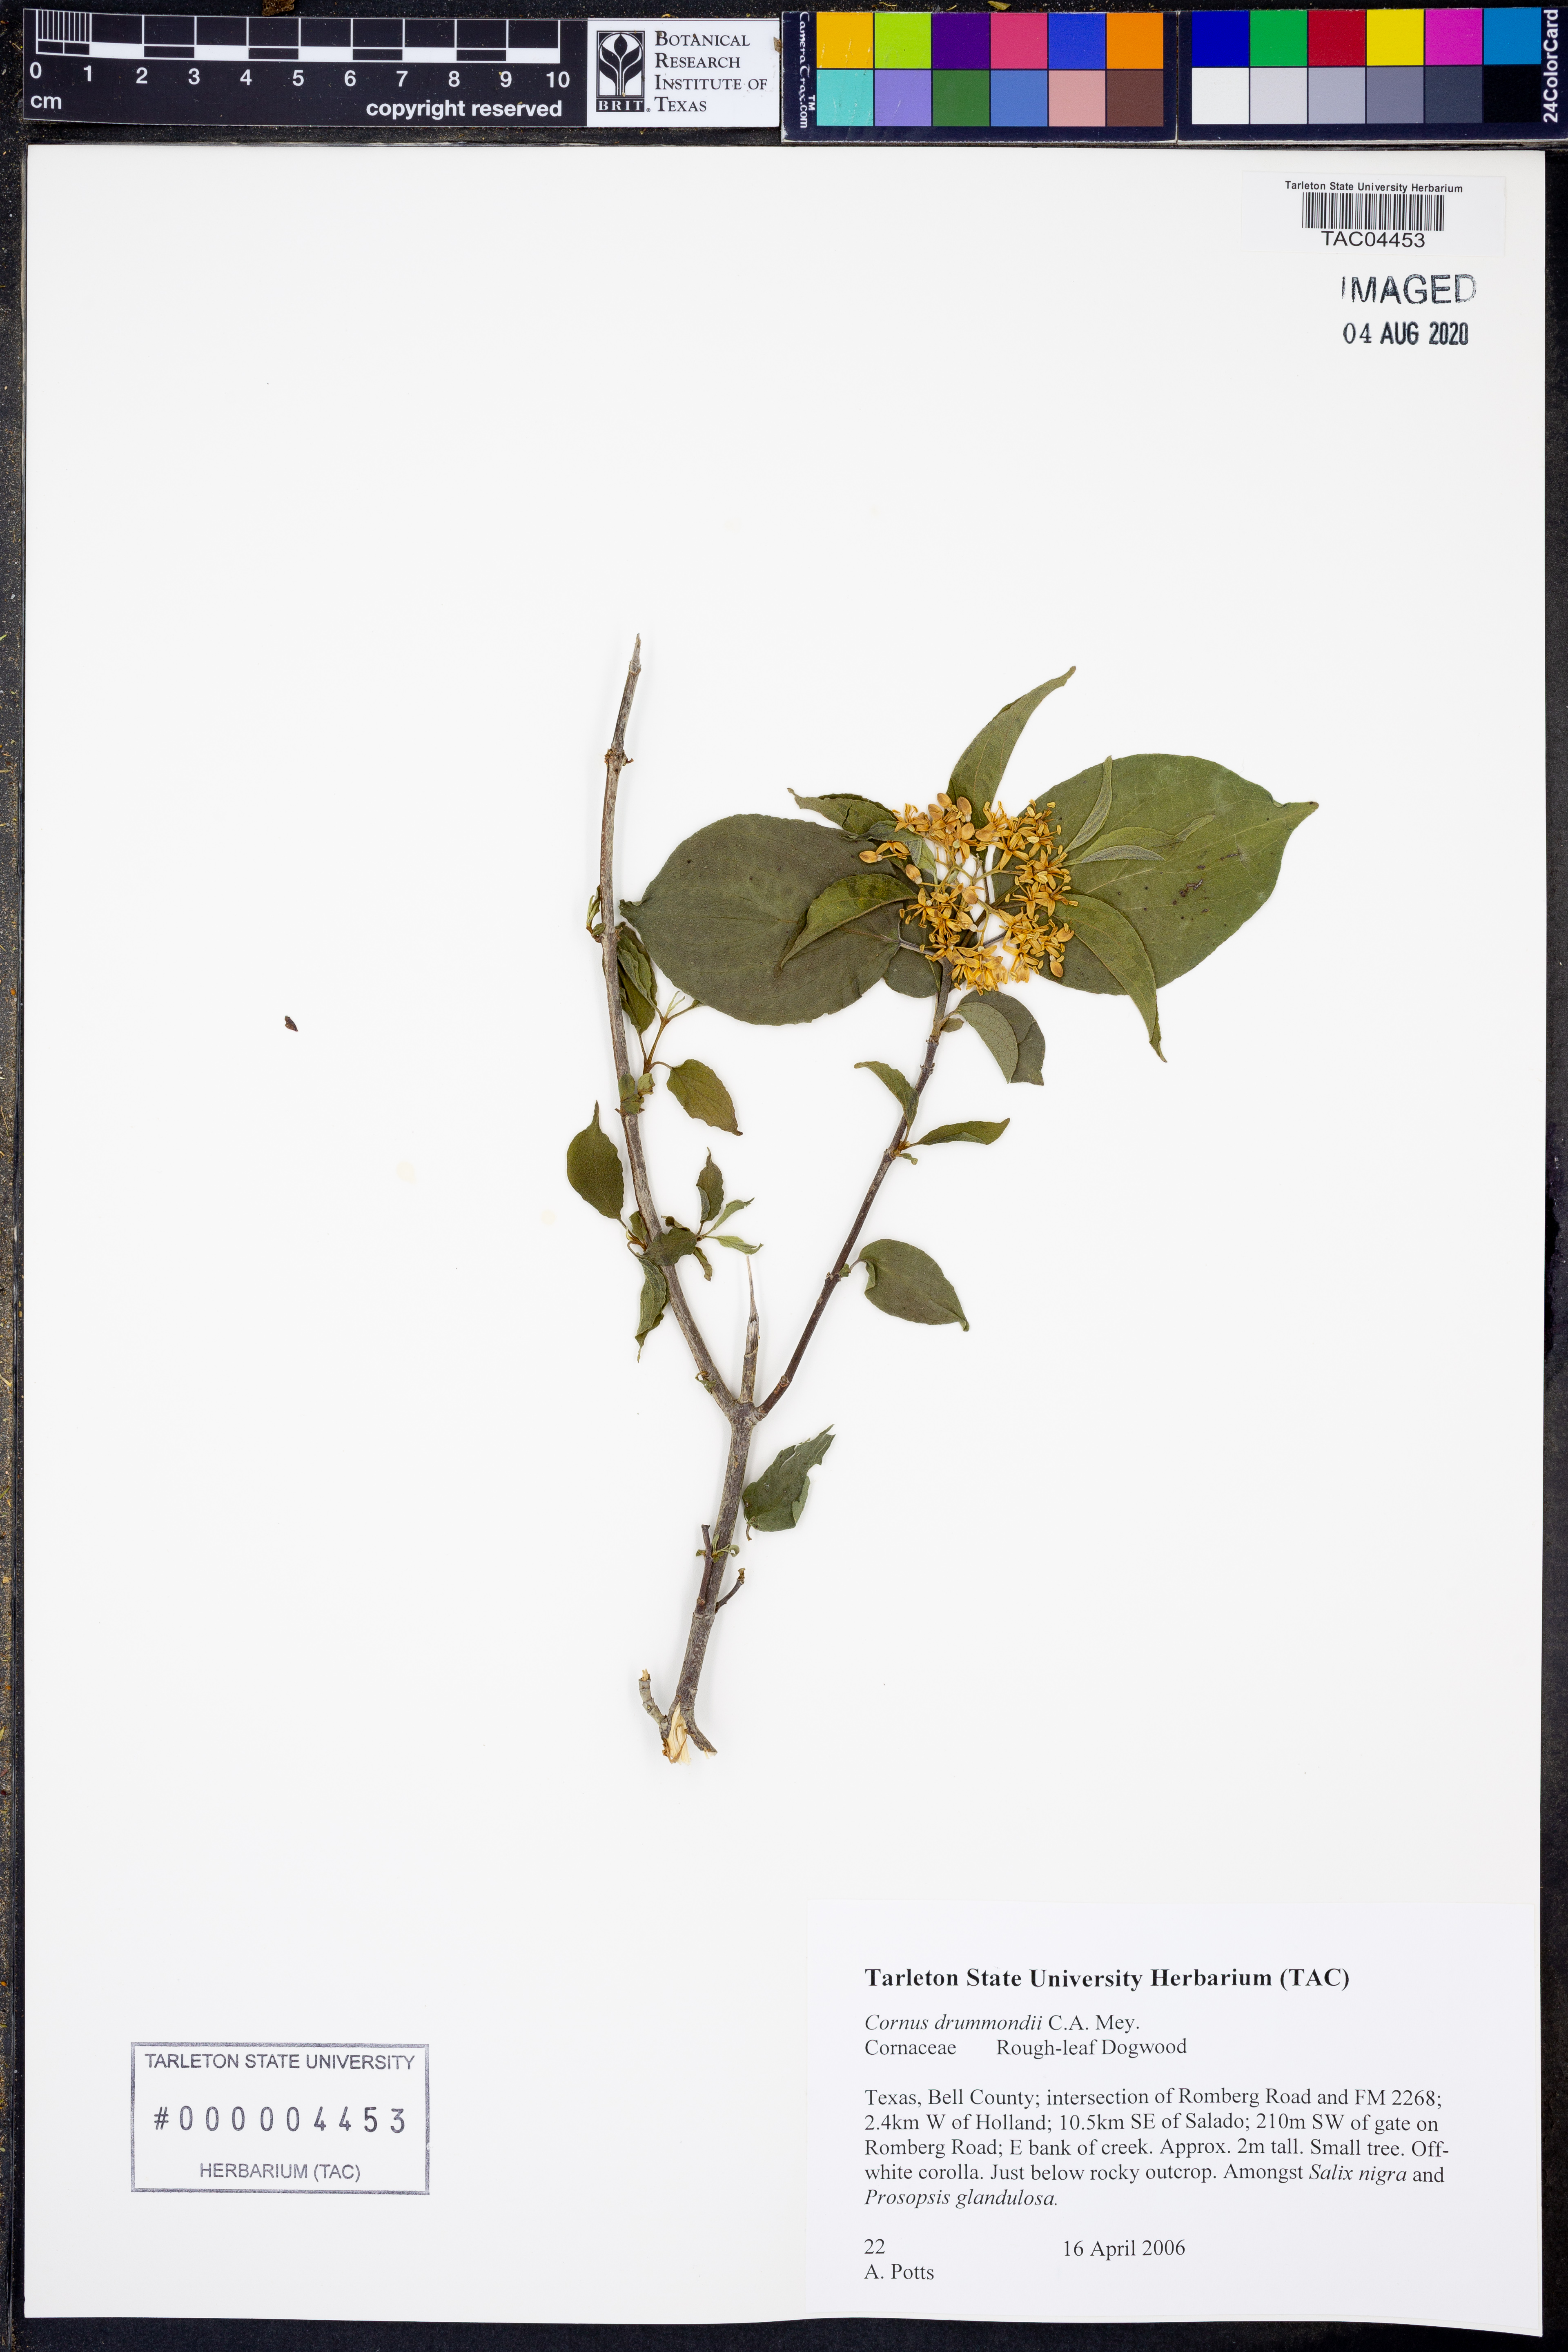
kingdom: Plantae
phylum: Tracheophyta
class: Magnoliopsida
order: Cornales
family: Cornaceae
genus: Cornus
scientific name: Cornus drummondii
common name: Rough-leaf dogwood
